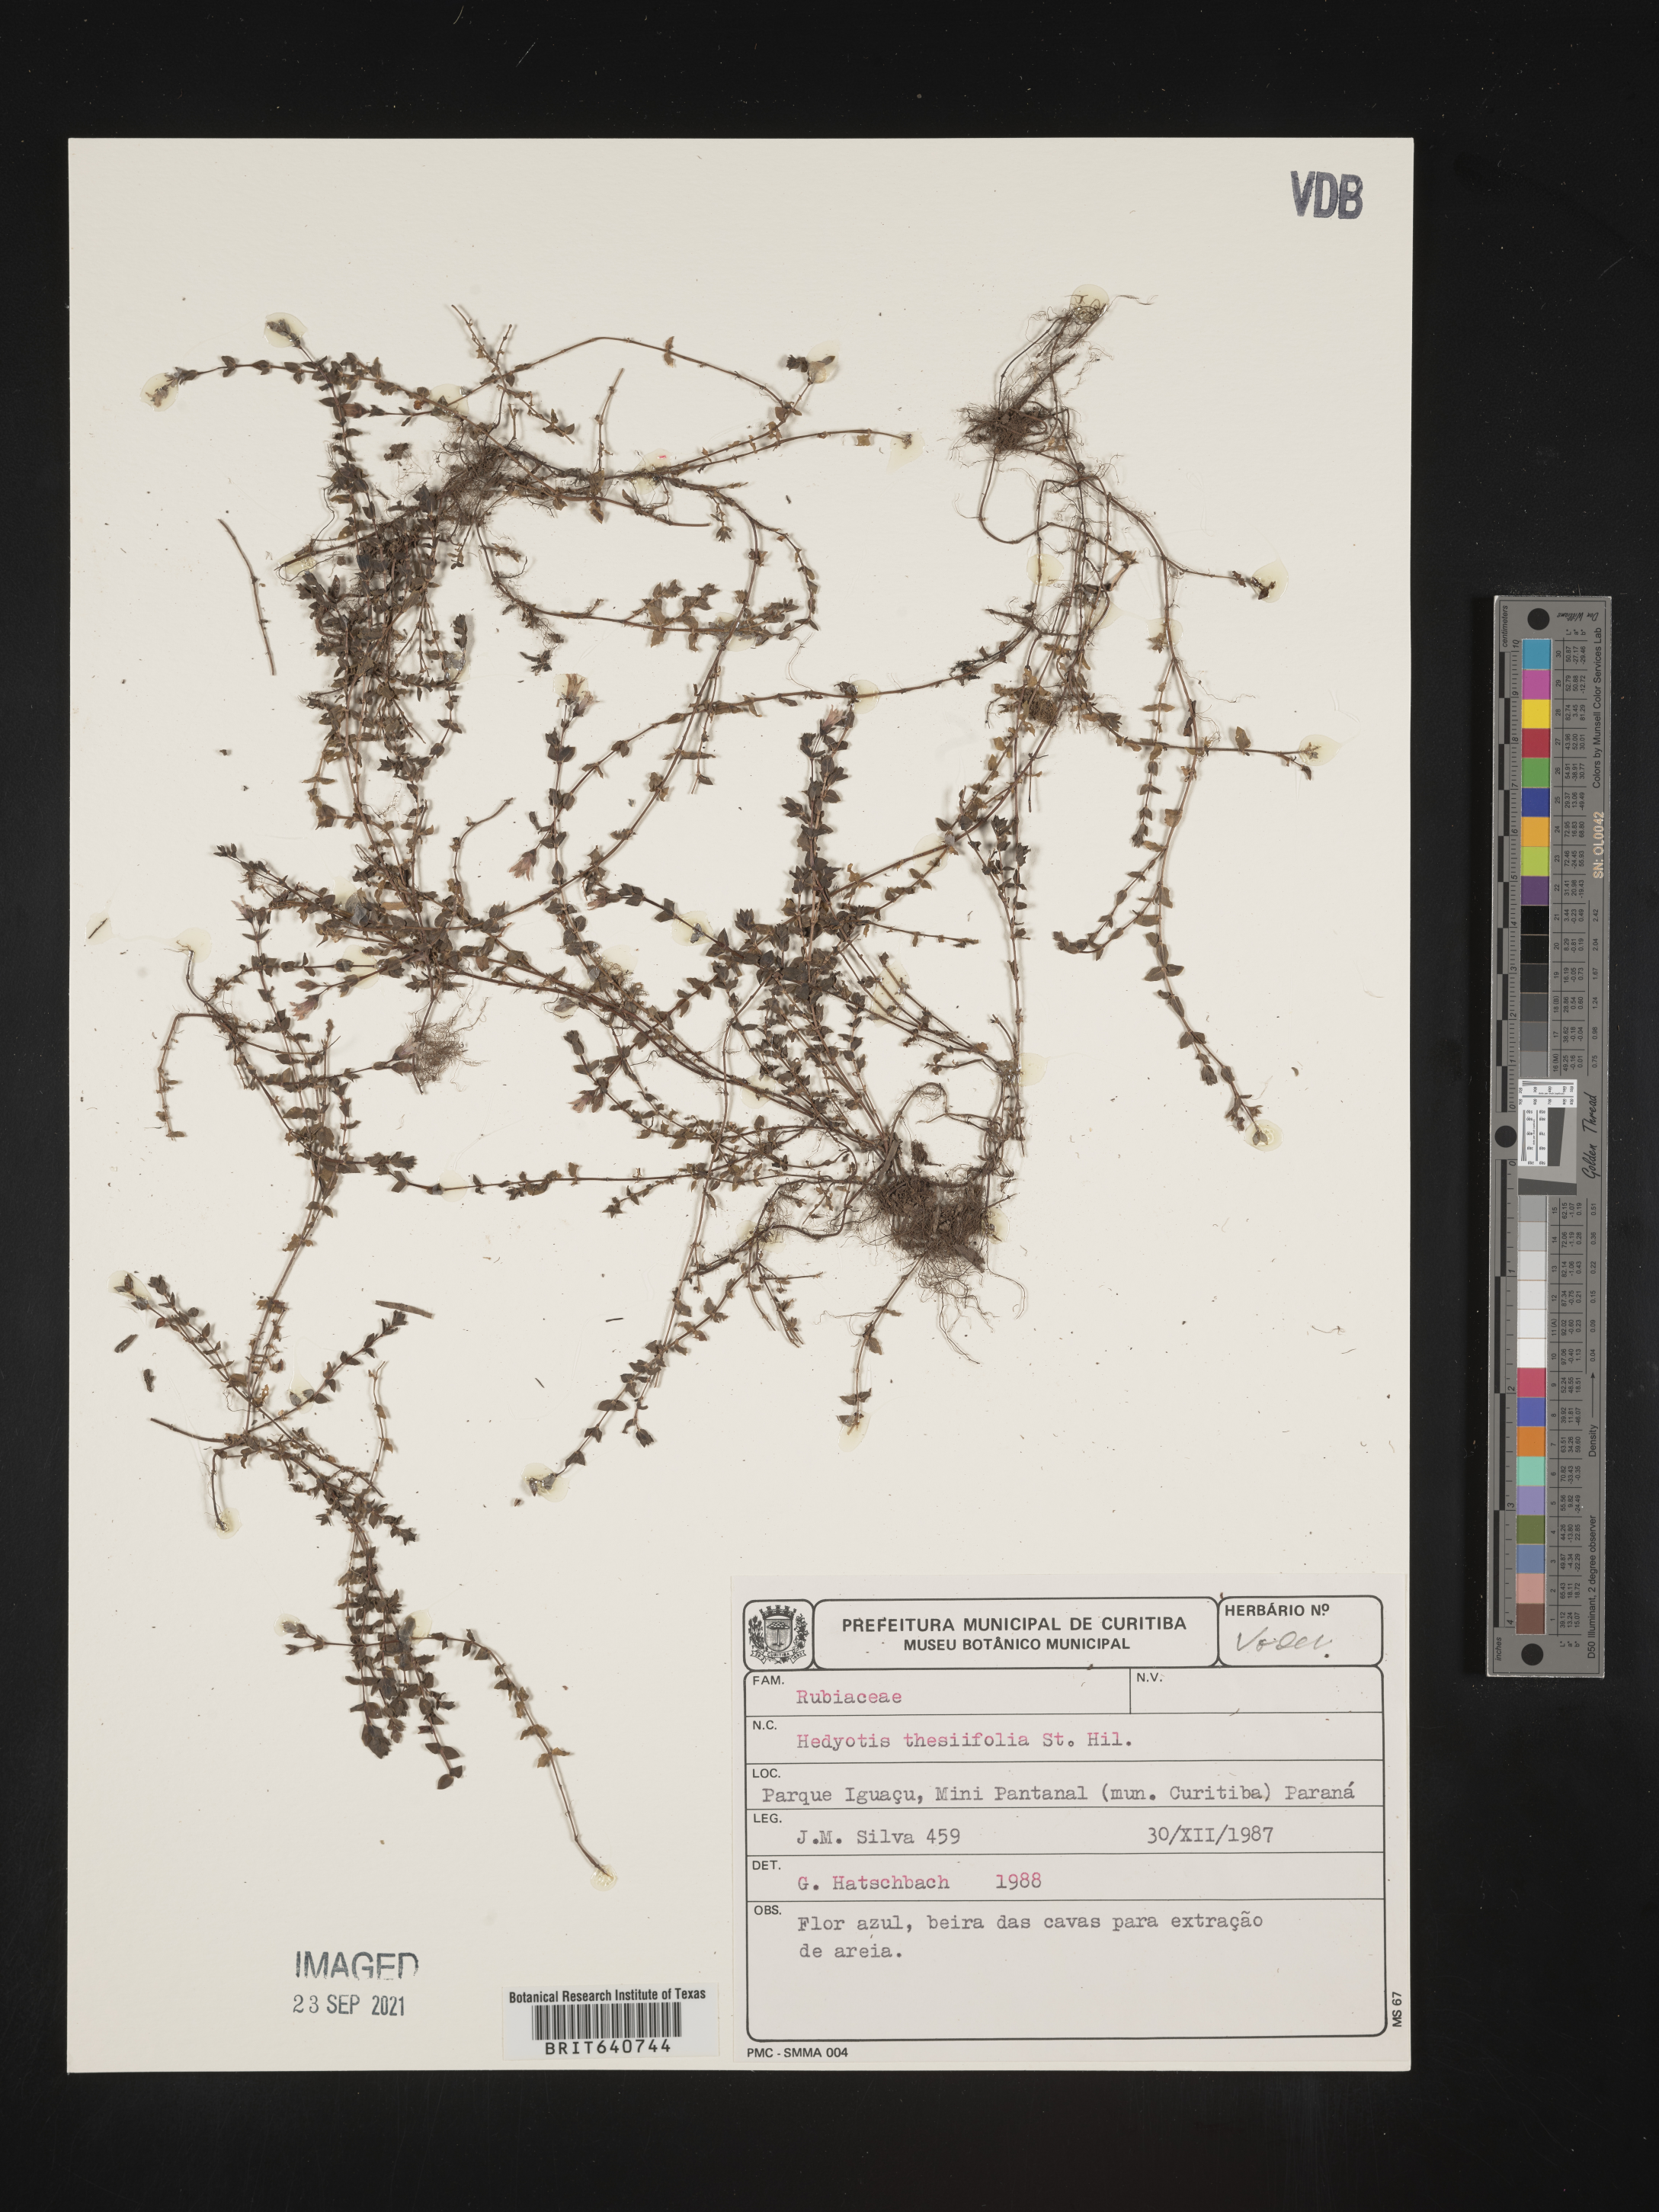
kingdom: Plantae
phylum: Tracheophyta
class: Magnoliopsida
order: Gentianales
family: Rubiaceae
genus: Hedyotis
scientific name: Hedyotis
